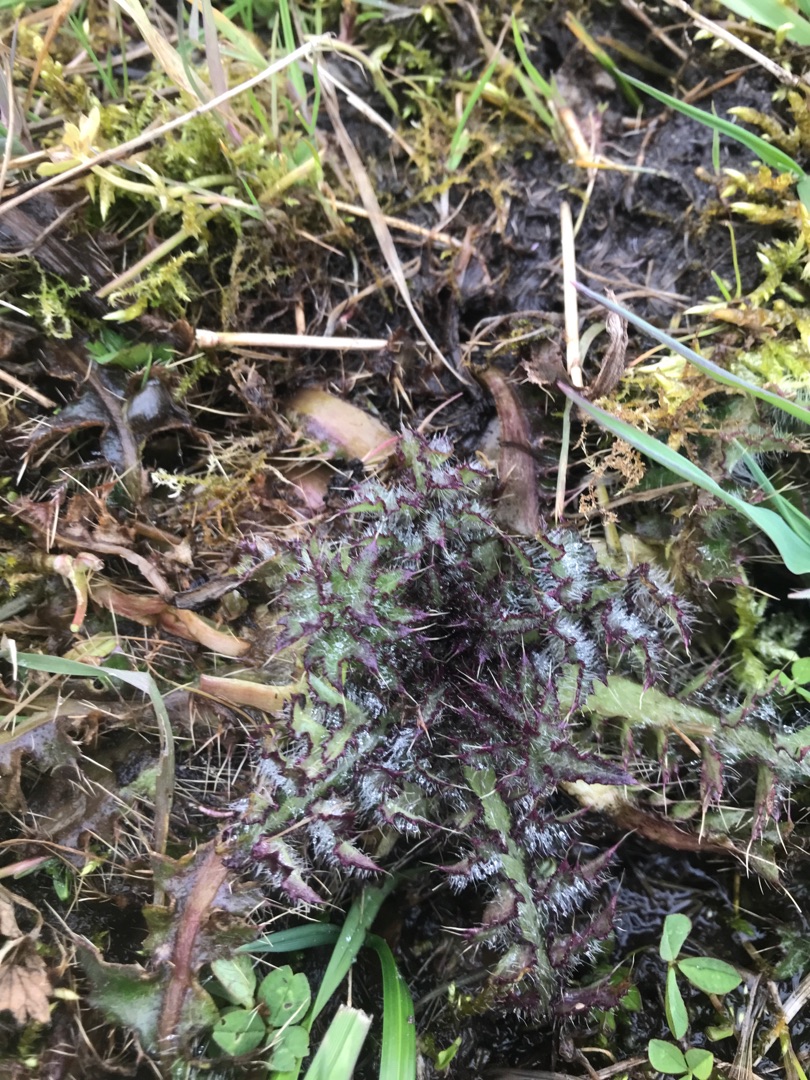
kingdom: Plantae
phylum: Tracheophyta
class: Magnoliopsida
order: Asterales
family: Asteraceae
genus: Cirsium
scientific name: Cirsium palustre
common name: Kær-tidsel
